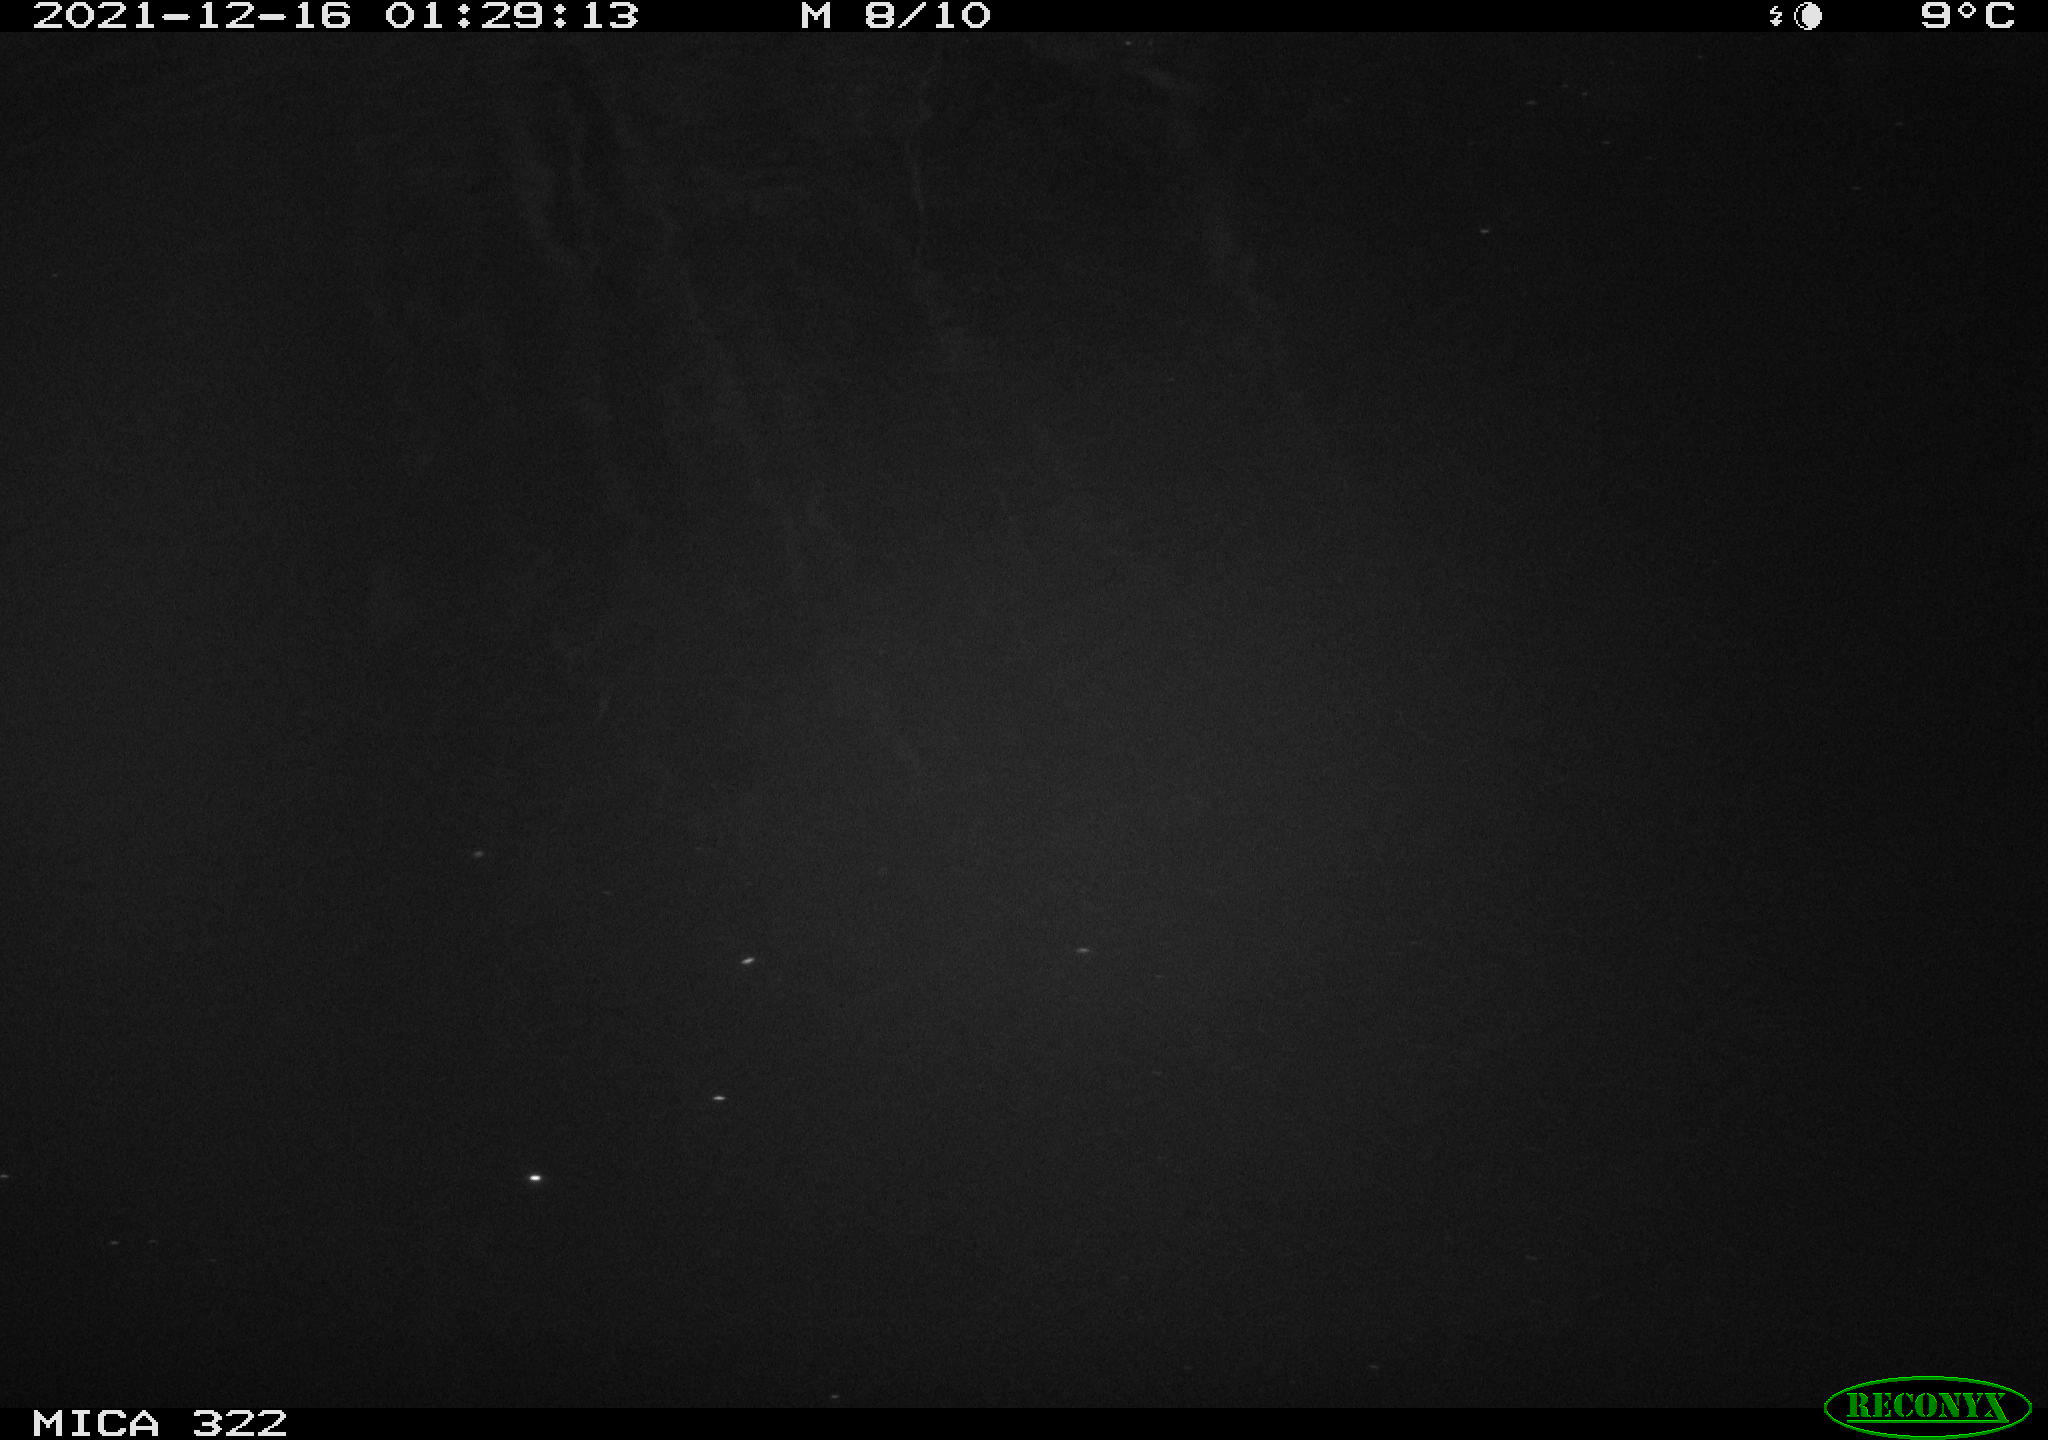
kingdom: Animalia
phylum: Chordata
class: Aves
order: Anseriformes
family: Anatidae
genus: Anas
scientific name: Anas
